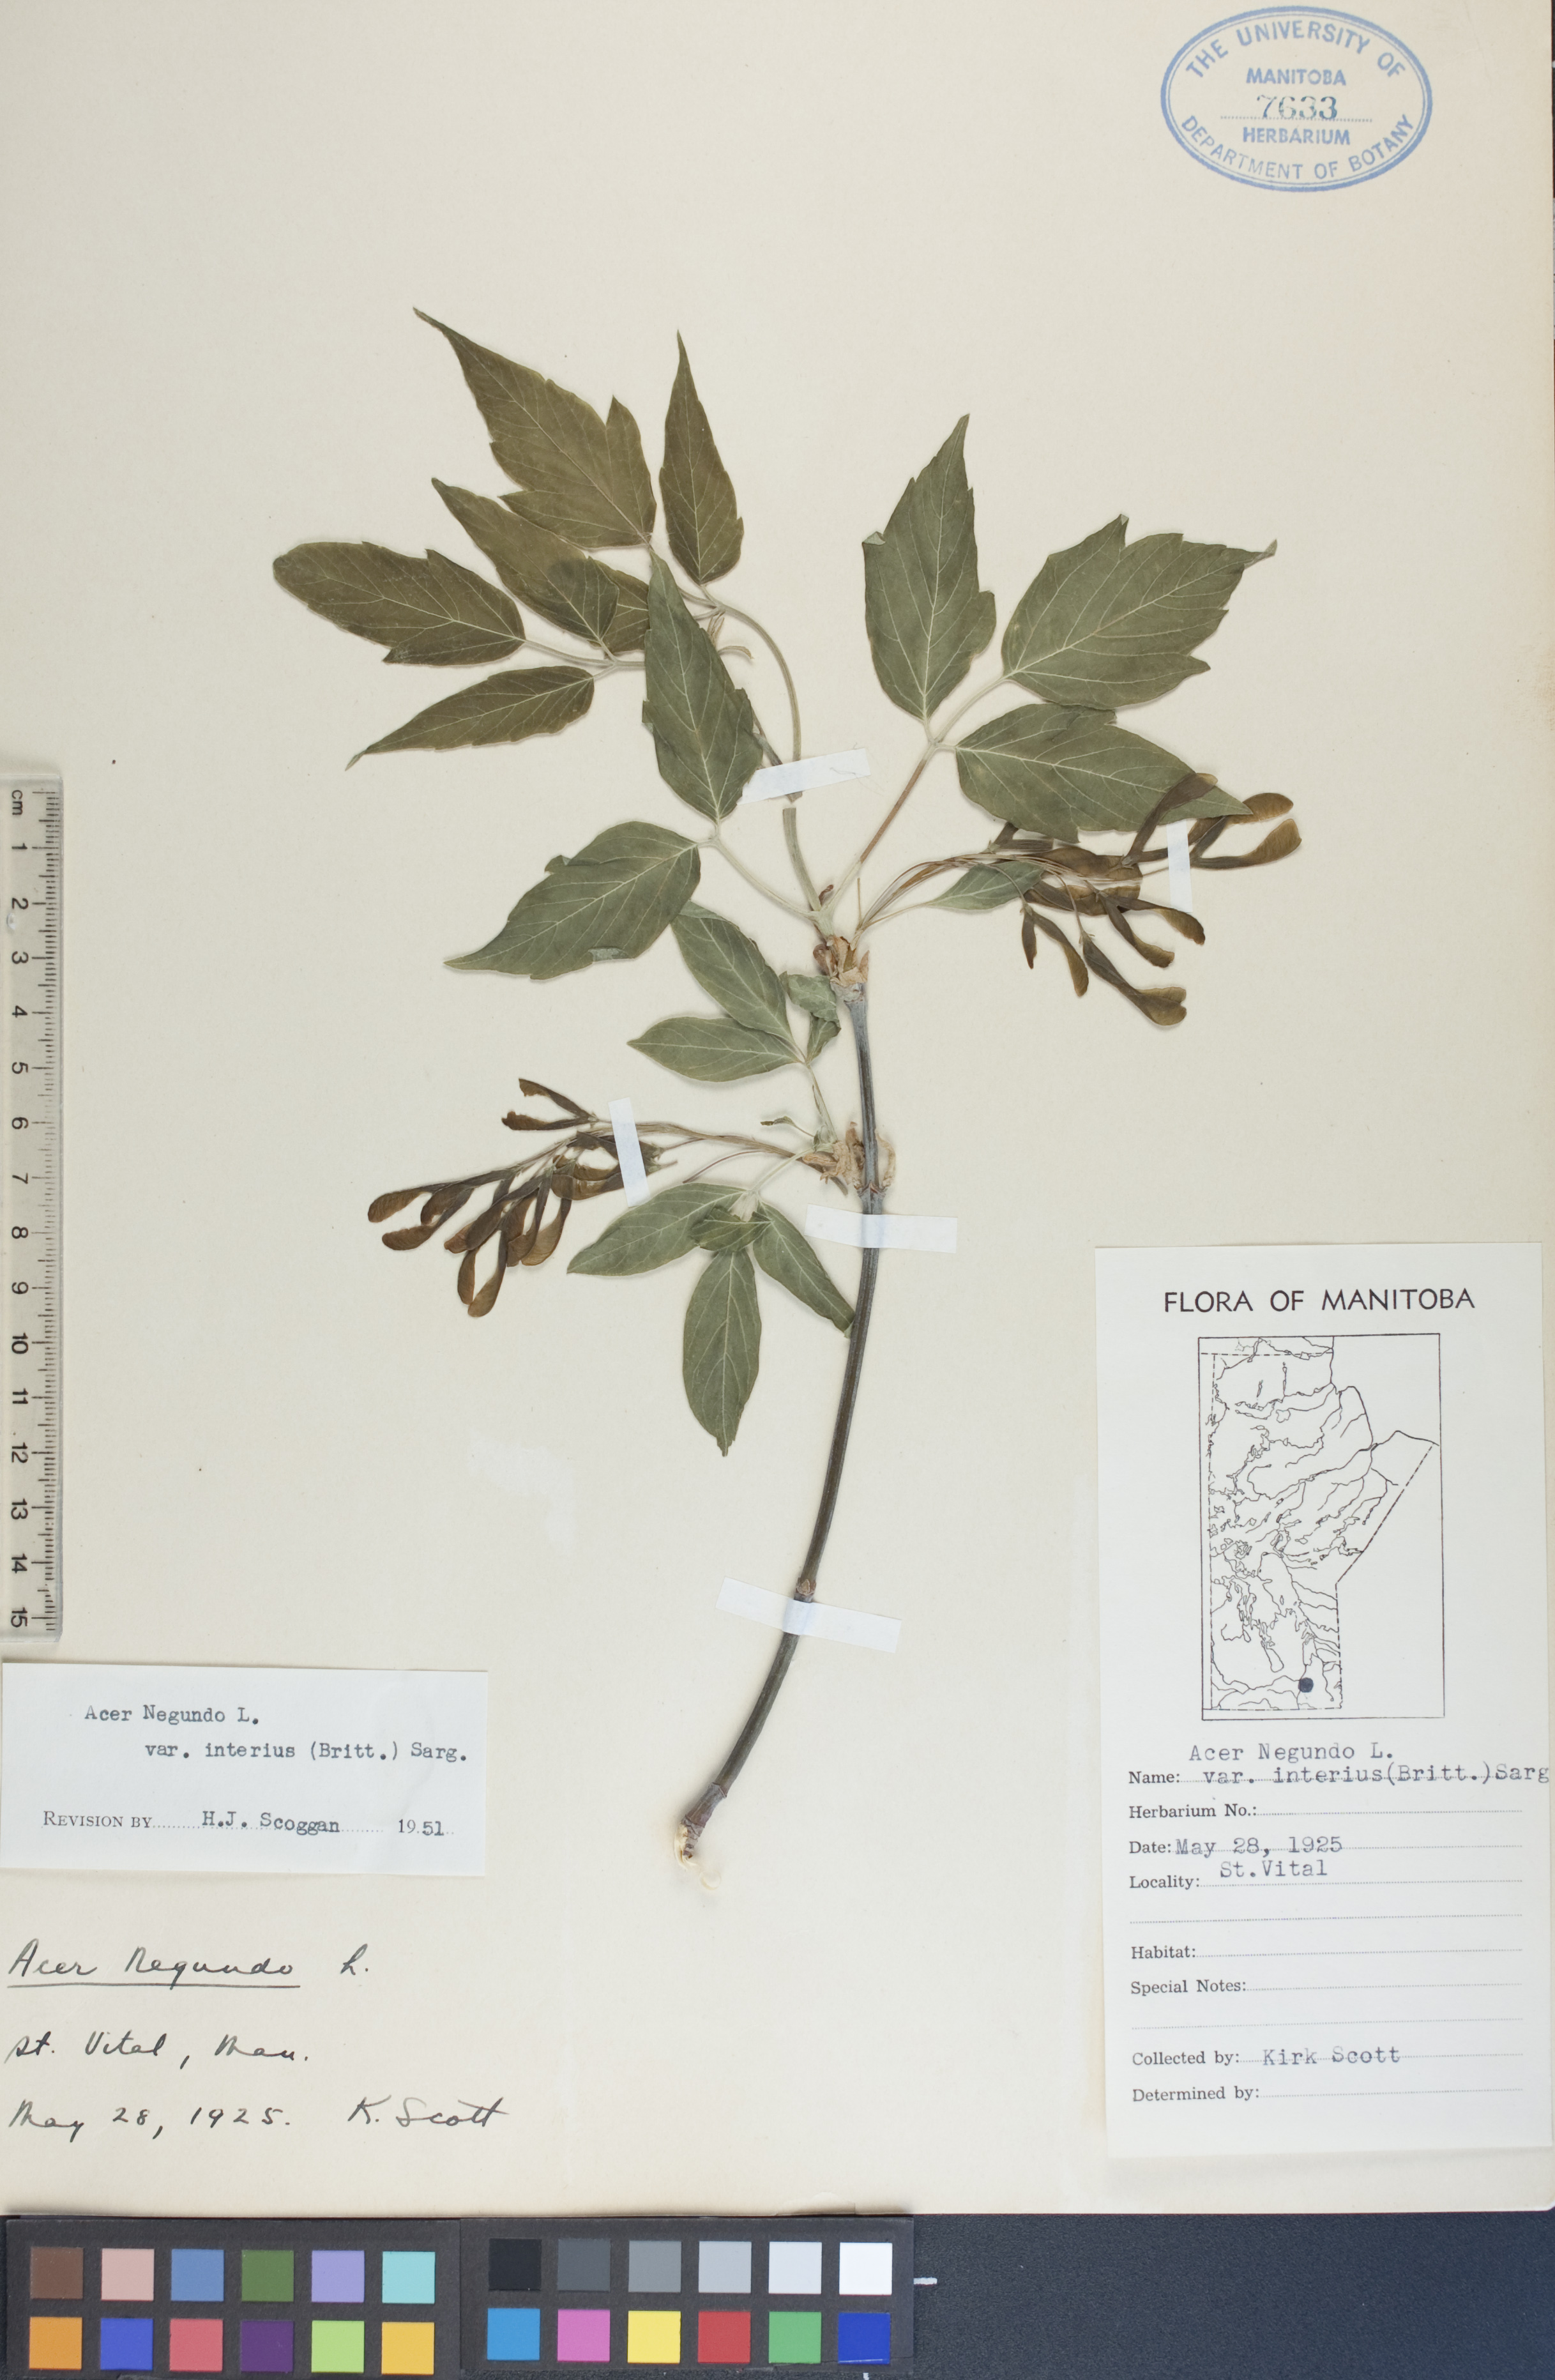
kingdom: Plantae
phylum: Tracheophyta
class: Magnoliopsida
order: Sapindales
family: Sapindaceae
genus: Acer
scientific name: Acer negundo
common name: Ashleaf maple
